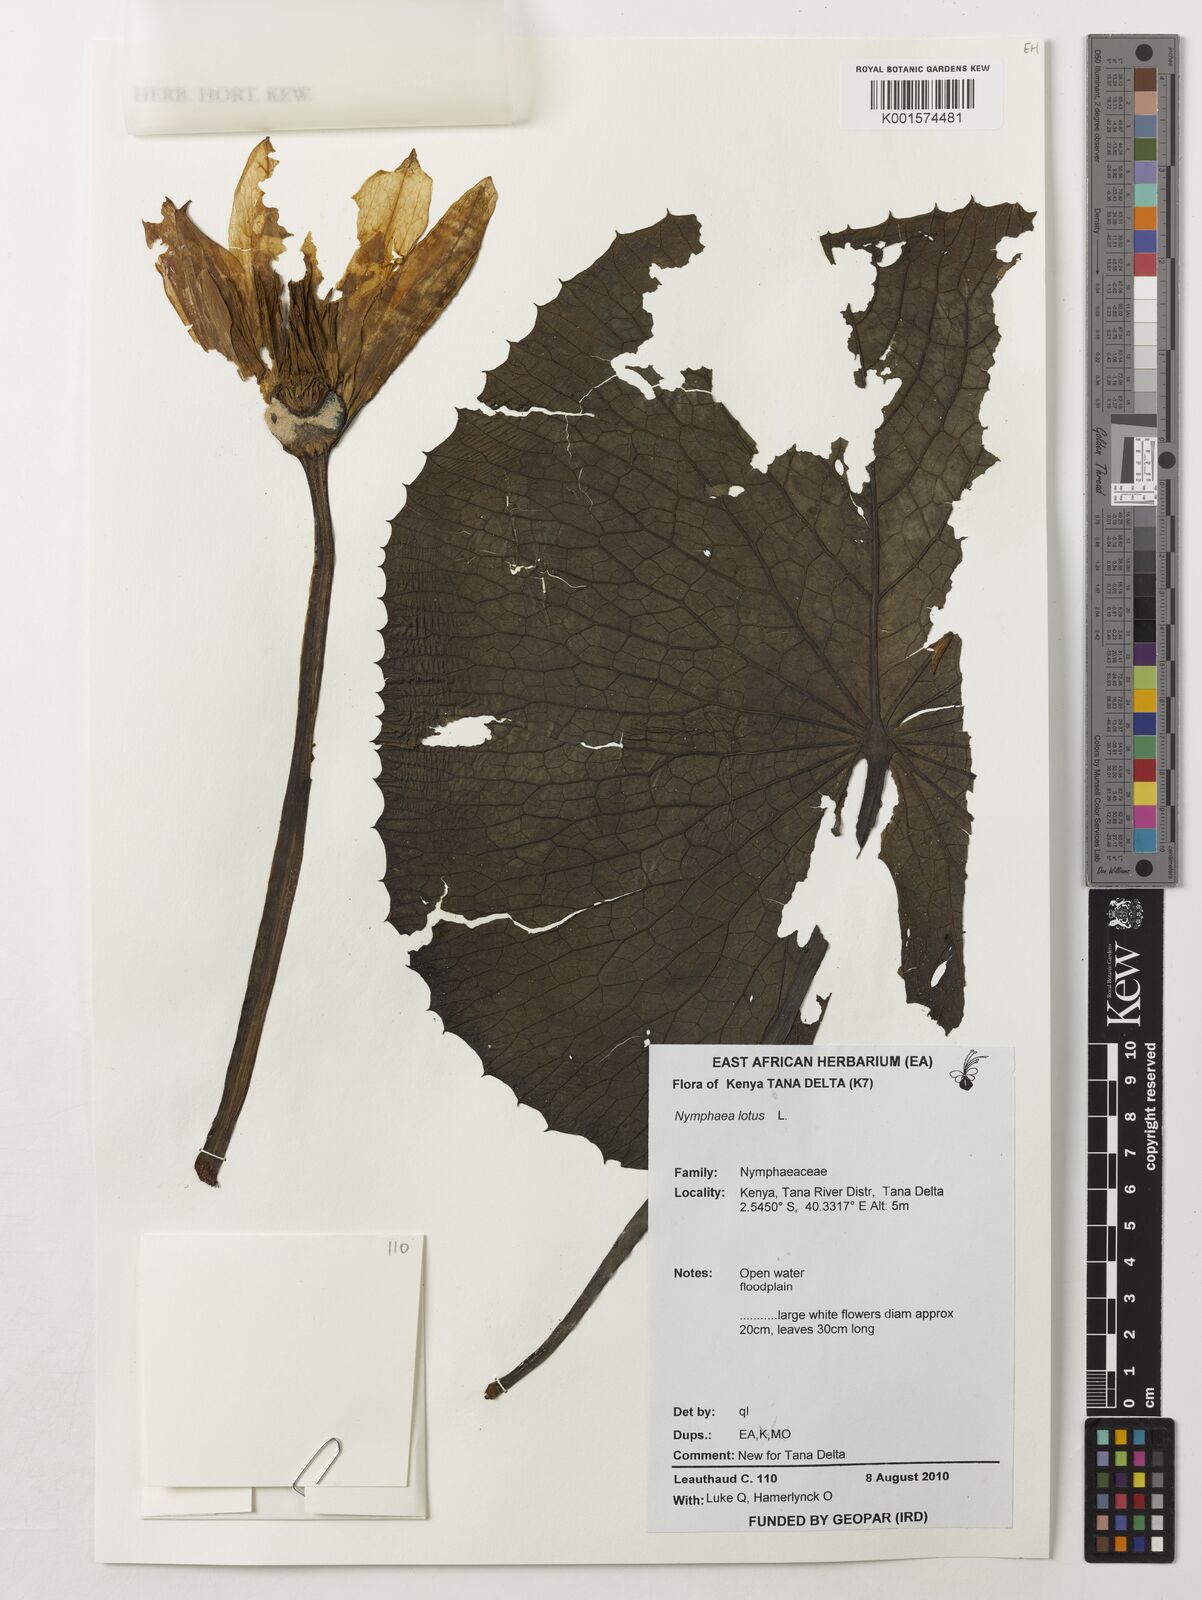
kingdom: Plantae
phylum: Tracheophyta
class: Magnoliopsida
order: Nymphaeales
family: Nymphaeaceae
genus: Nymphaea
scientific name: Nymphaea lotus
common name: White egyptian lotus
